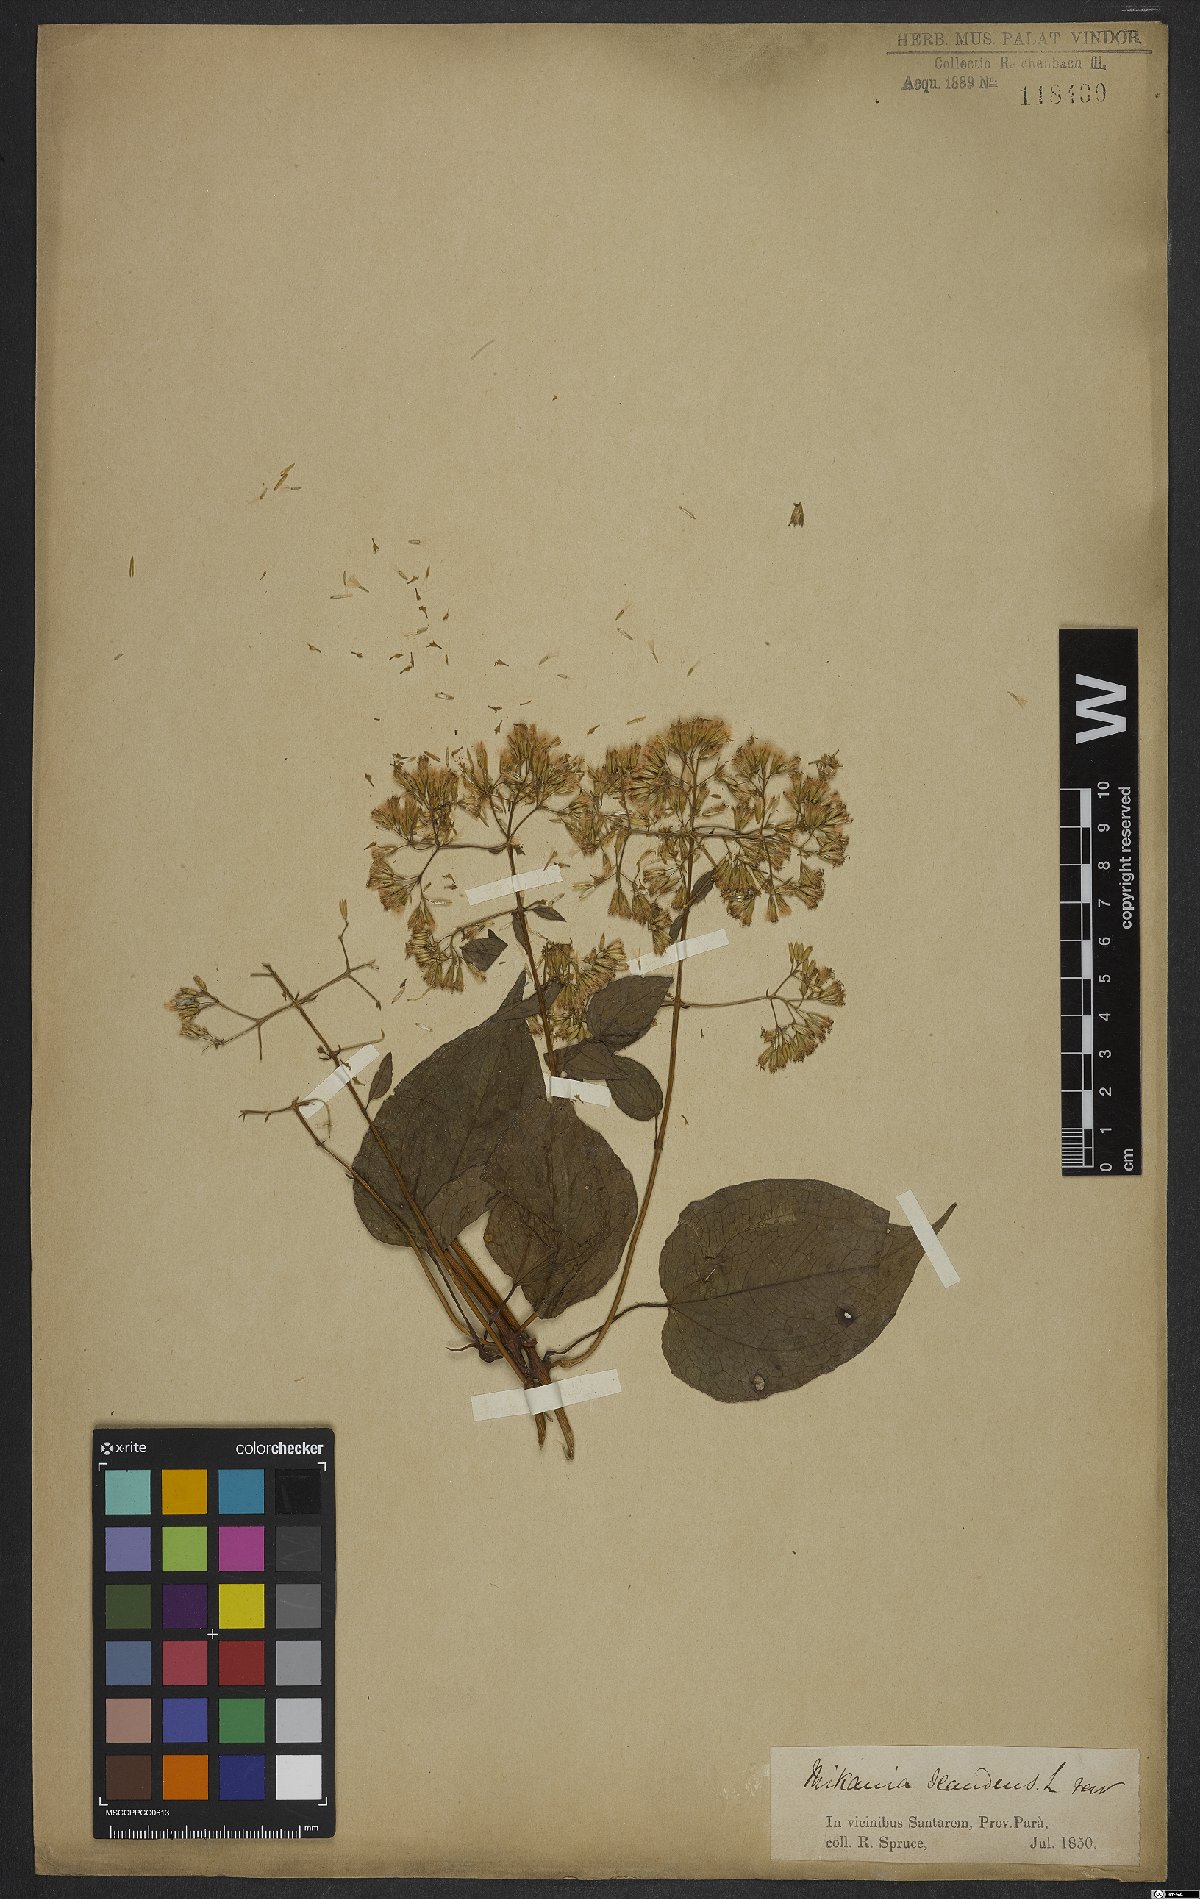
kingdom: Plantae
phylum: Tracheophyta
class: Magnoliopsida
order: Asterales
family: Asteraceae
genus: Mikania
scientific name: Mikania scandens
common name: Climbing hempvine
